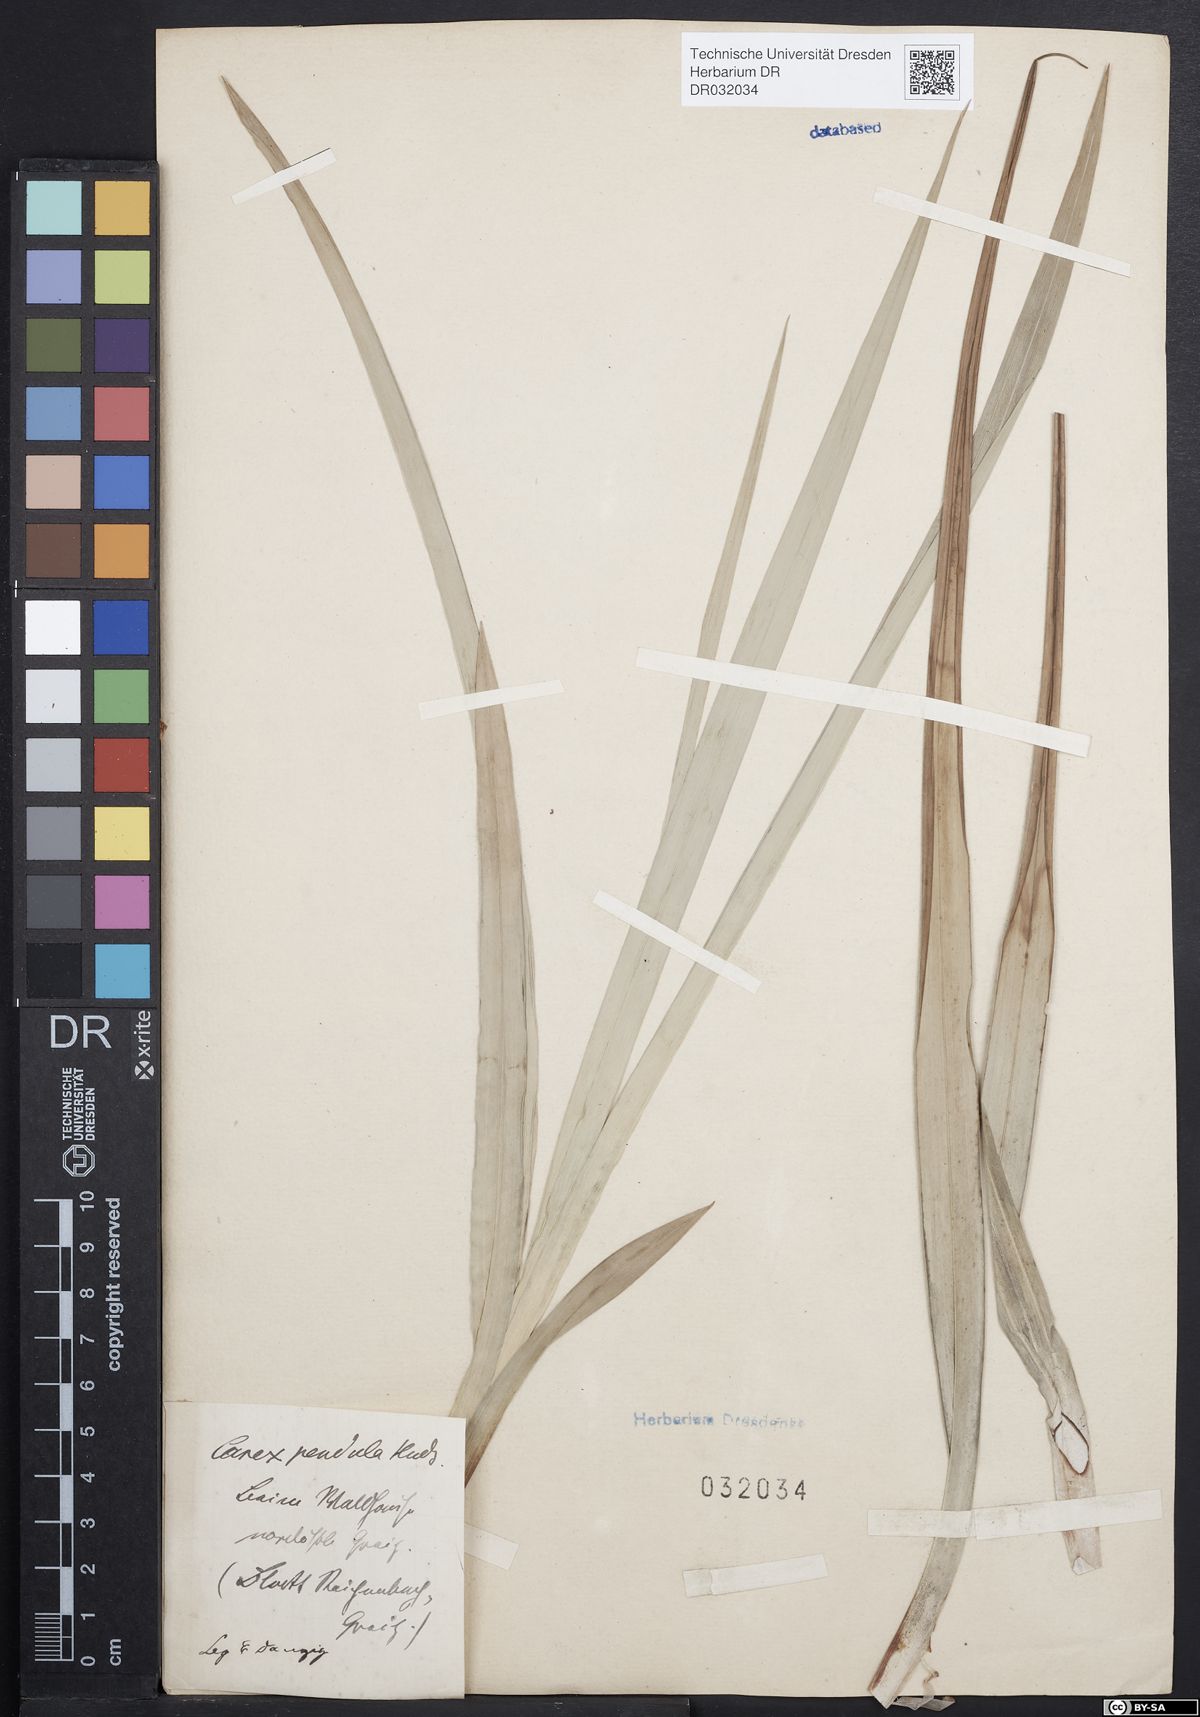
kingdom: Plantae
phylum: Tracheophyta
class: Liliopsida
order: Poales
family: Cyperaceae
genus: Carex
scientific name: Carex pendula
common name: Pendulous sedge
